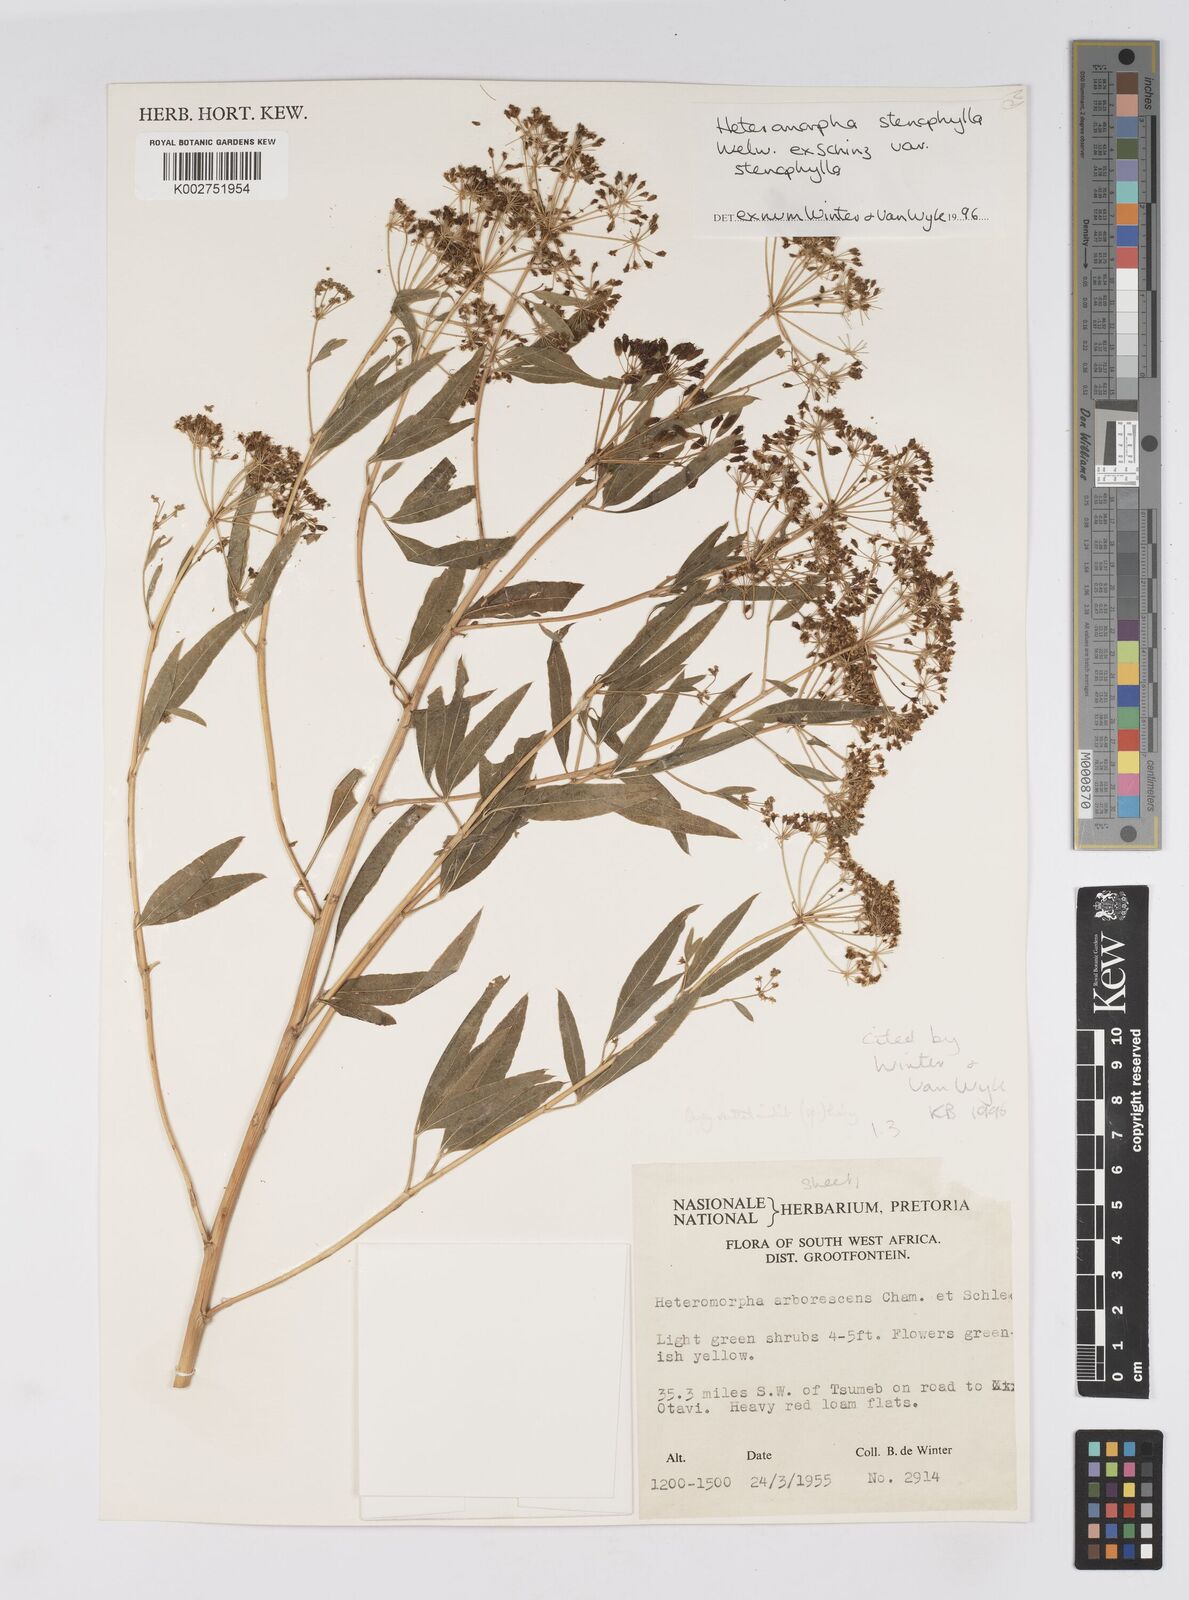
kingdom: Plantae
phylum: Tracheophyta
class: Magnoliopsida
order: Apiales
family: Apiaceae
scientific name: Apiaceae
